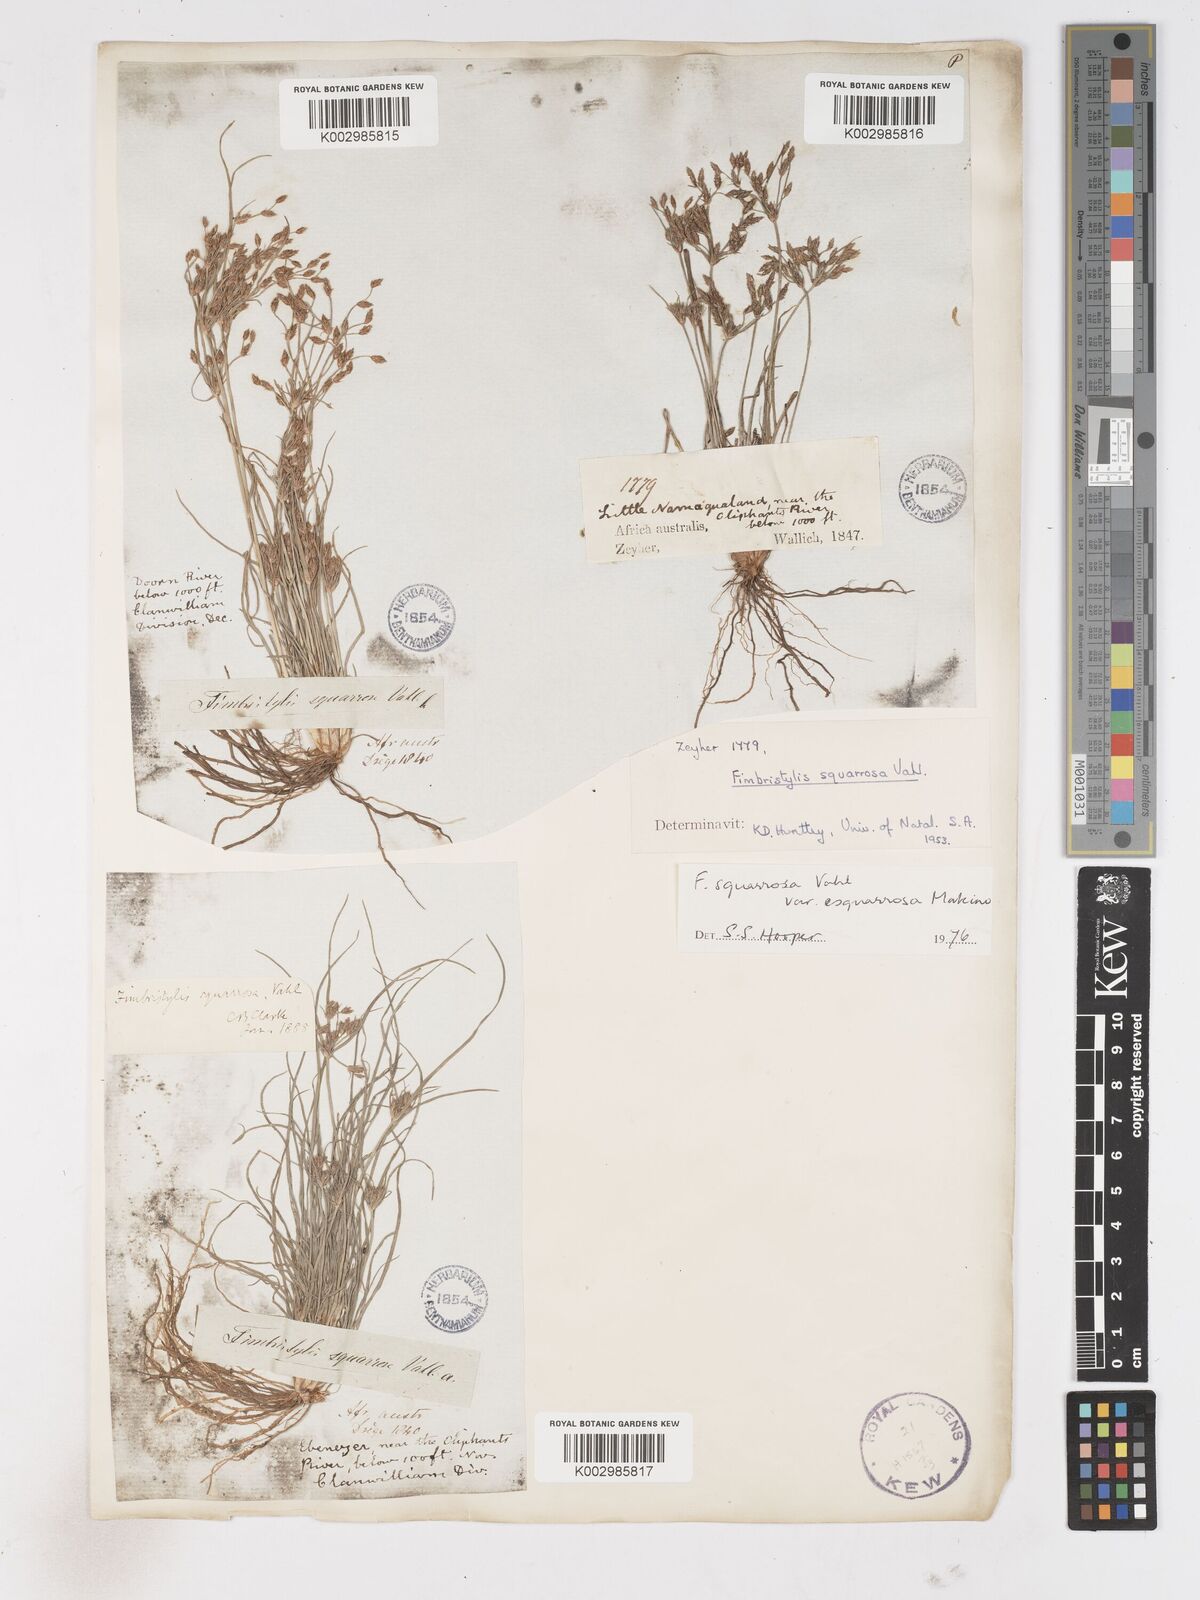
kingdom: Plantae
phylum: Tracheophyta
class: Liliopsida
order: Poales
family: Cyperaceae
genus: Fimbristylis
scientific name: Fimbristylis velata
